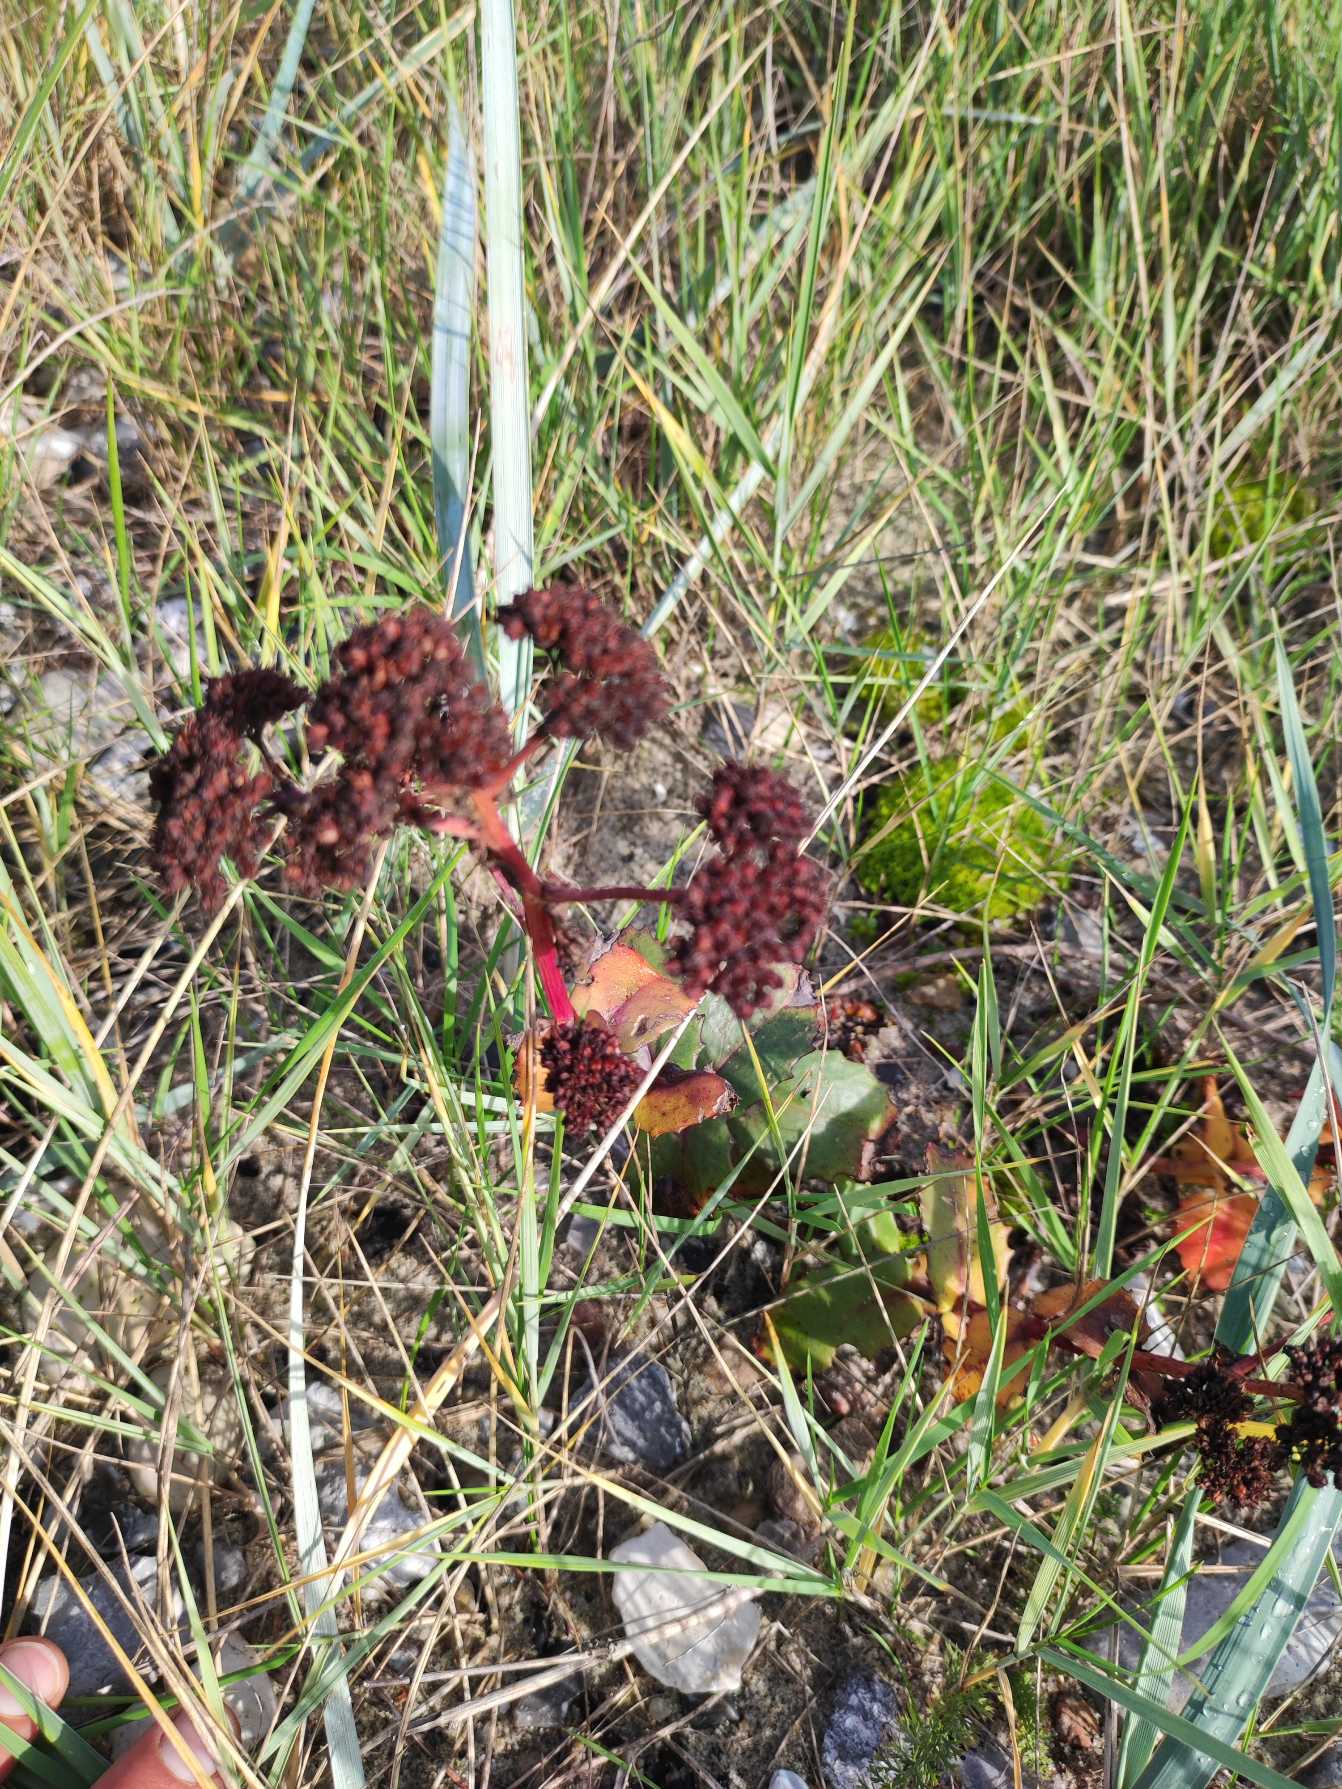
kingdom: Plantae
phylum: Tracheophyta
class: Magnoliopsida
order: Saxifragales
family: Crassulaceae
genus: Hylotelephium
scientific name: Hylotelephium maximum
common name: Almindelig sankthansurt
